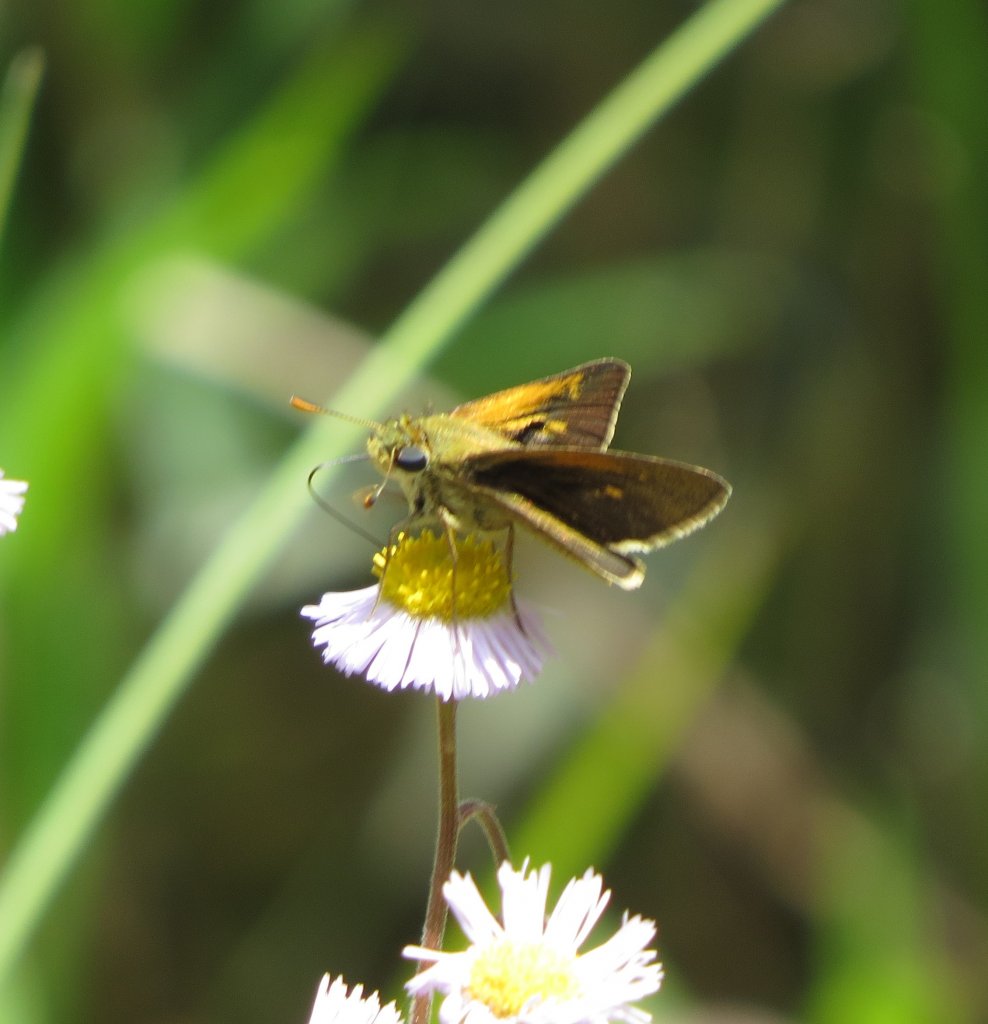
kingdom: Animalia
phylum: Arthropoda
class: Insecta
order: Lepidoptera
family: Hesperiidae
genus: Polites
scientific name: Polites themistocles
